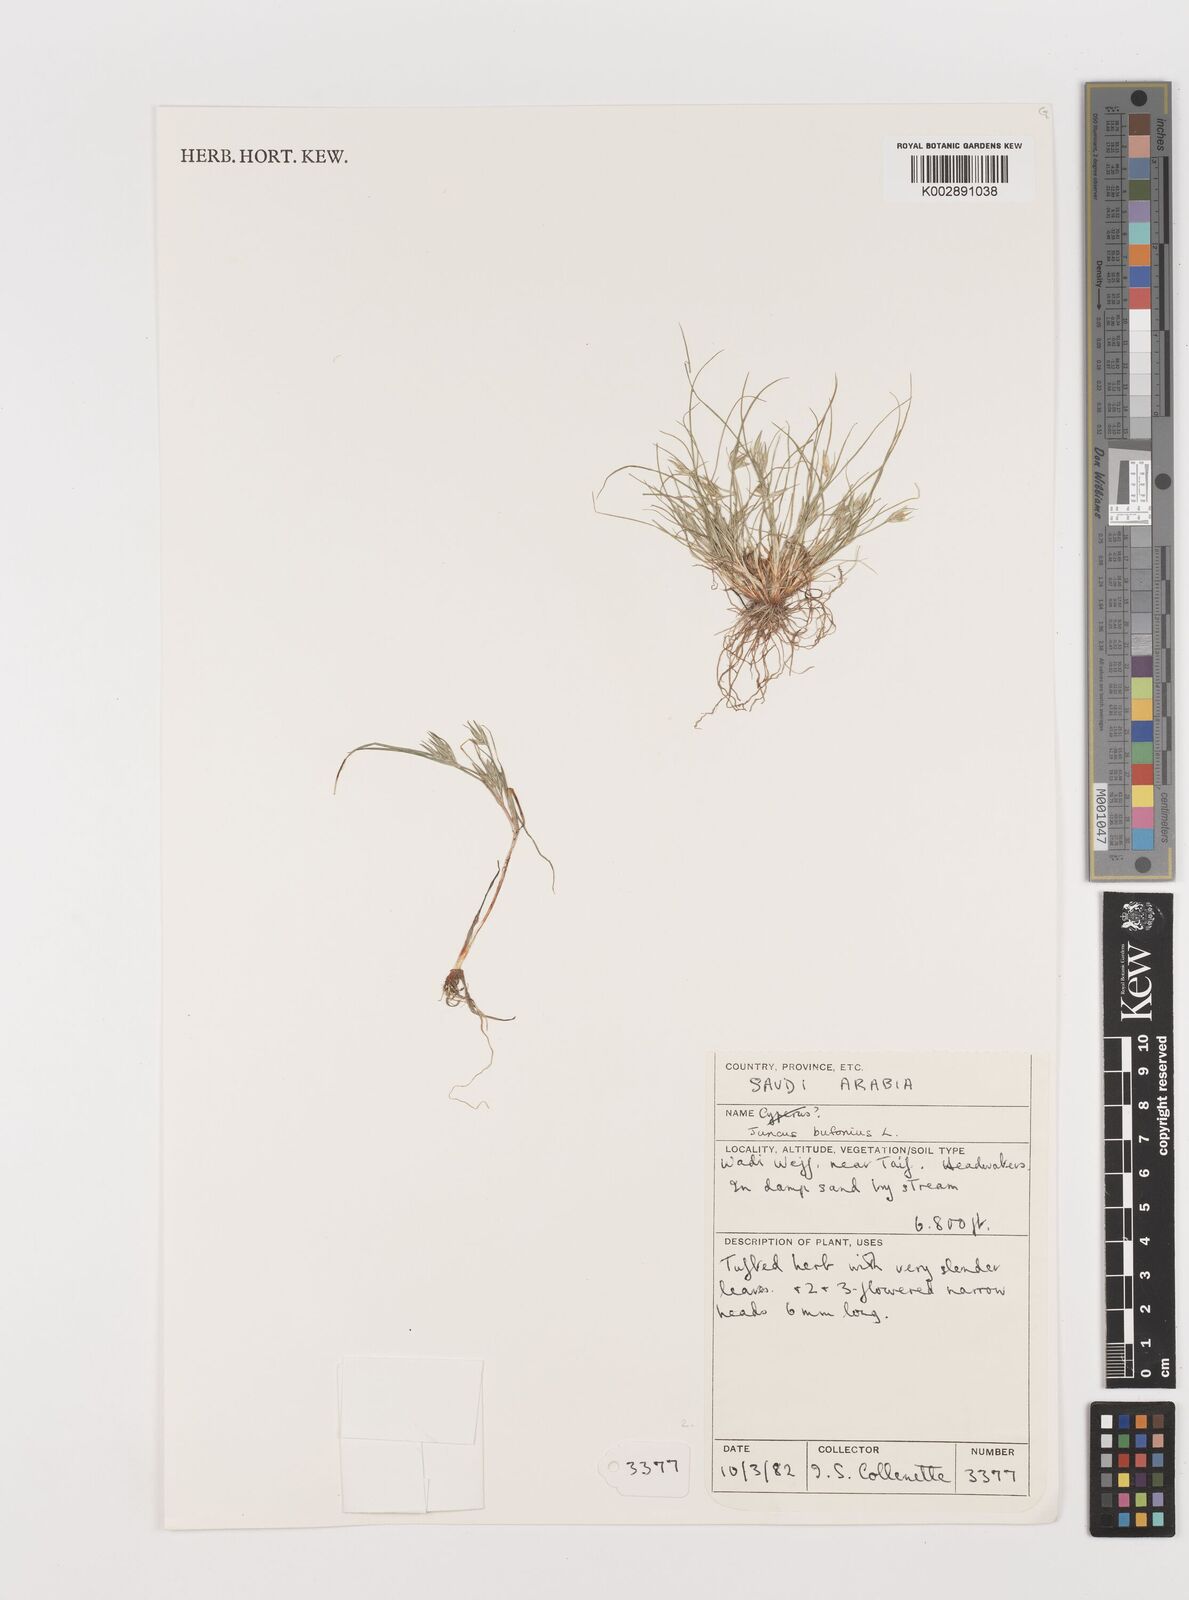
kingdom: Plantae
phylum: Tracheophyta
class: Liliopsida
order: Poales
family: Juncaceae
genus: Juncus
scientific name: Juncus bufonius
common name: Toad rush
